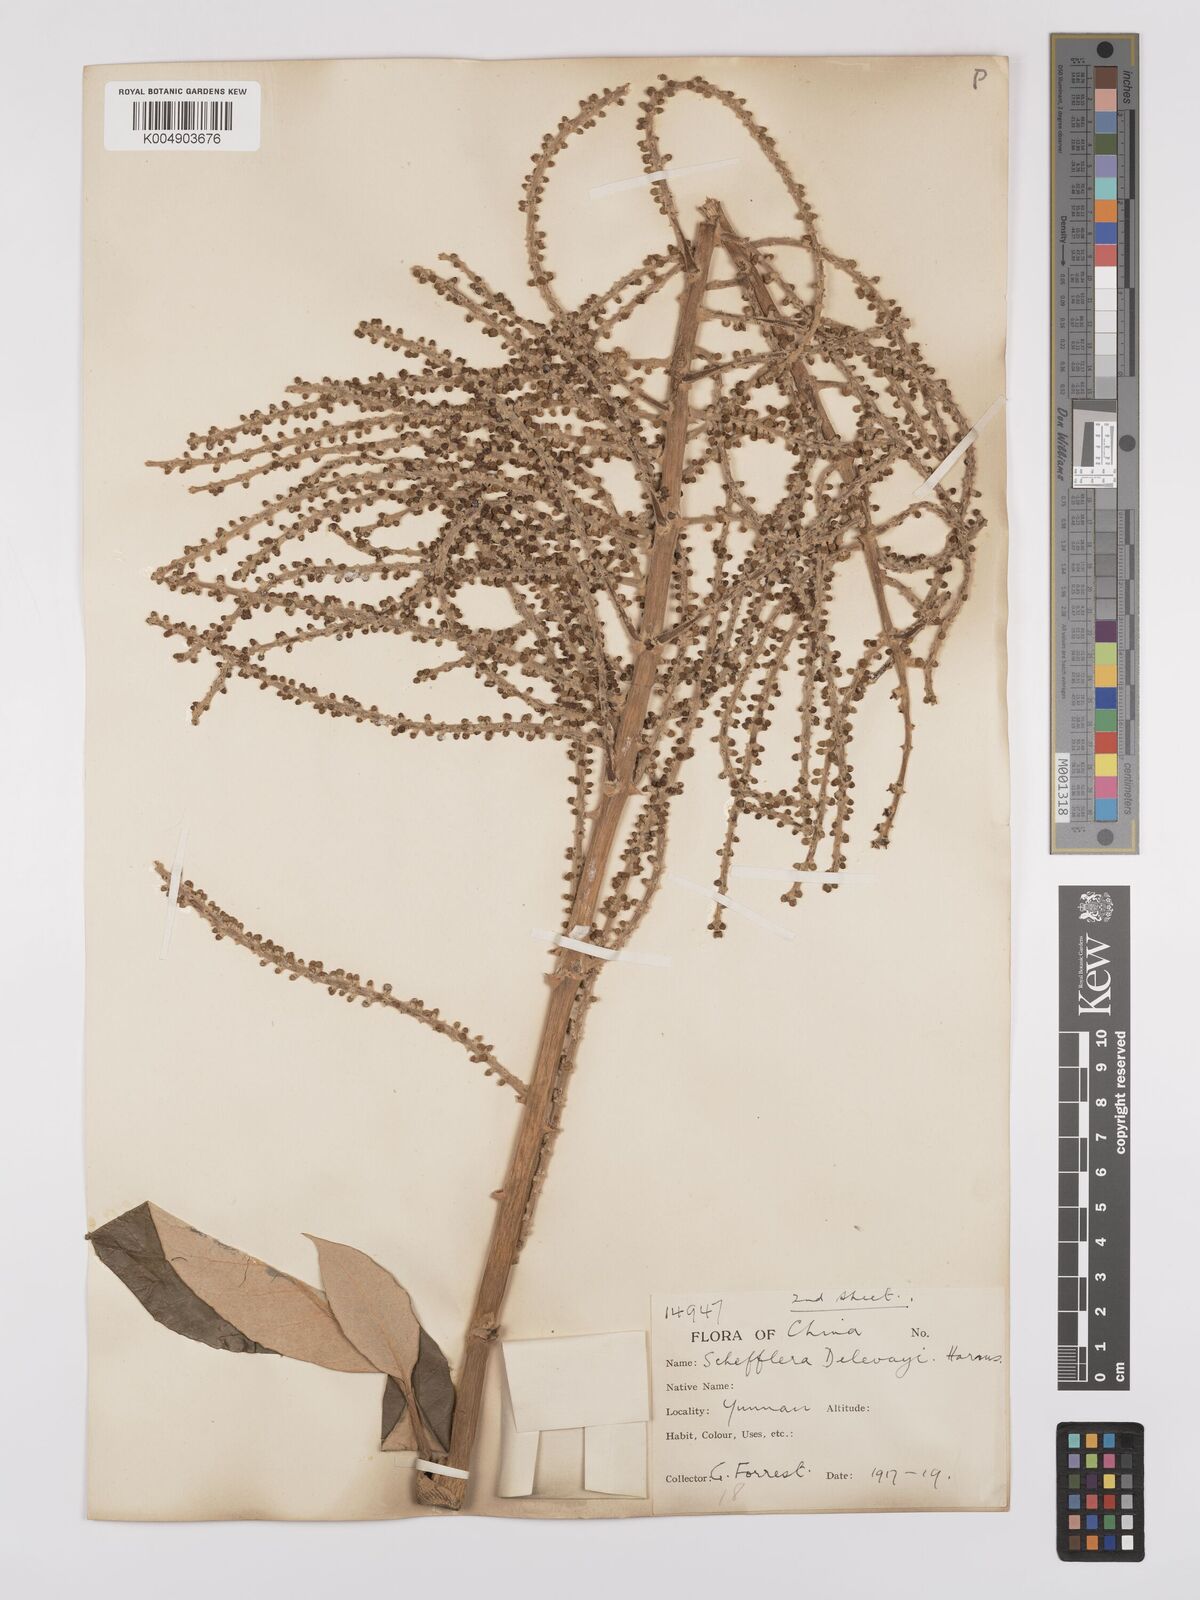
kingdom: Plantae
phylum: Tracheophyta
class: Magnoliopsida
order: Apiales
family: Araliaceae
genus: Heptapleurum
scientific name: Heptapleurum delavayi
